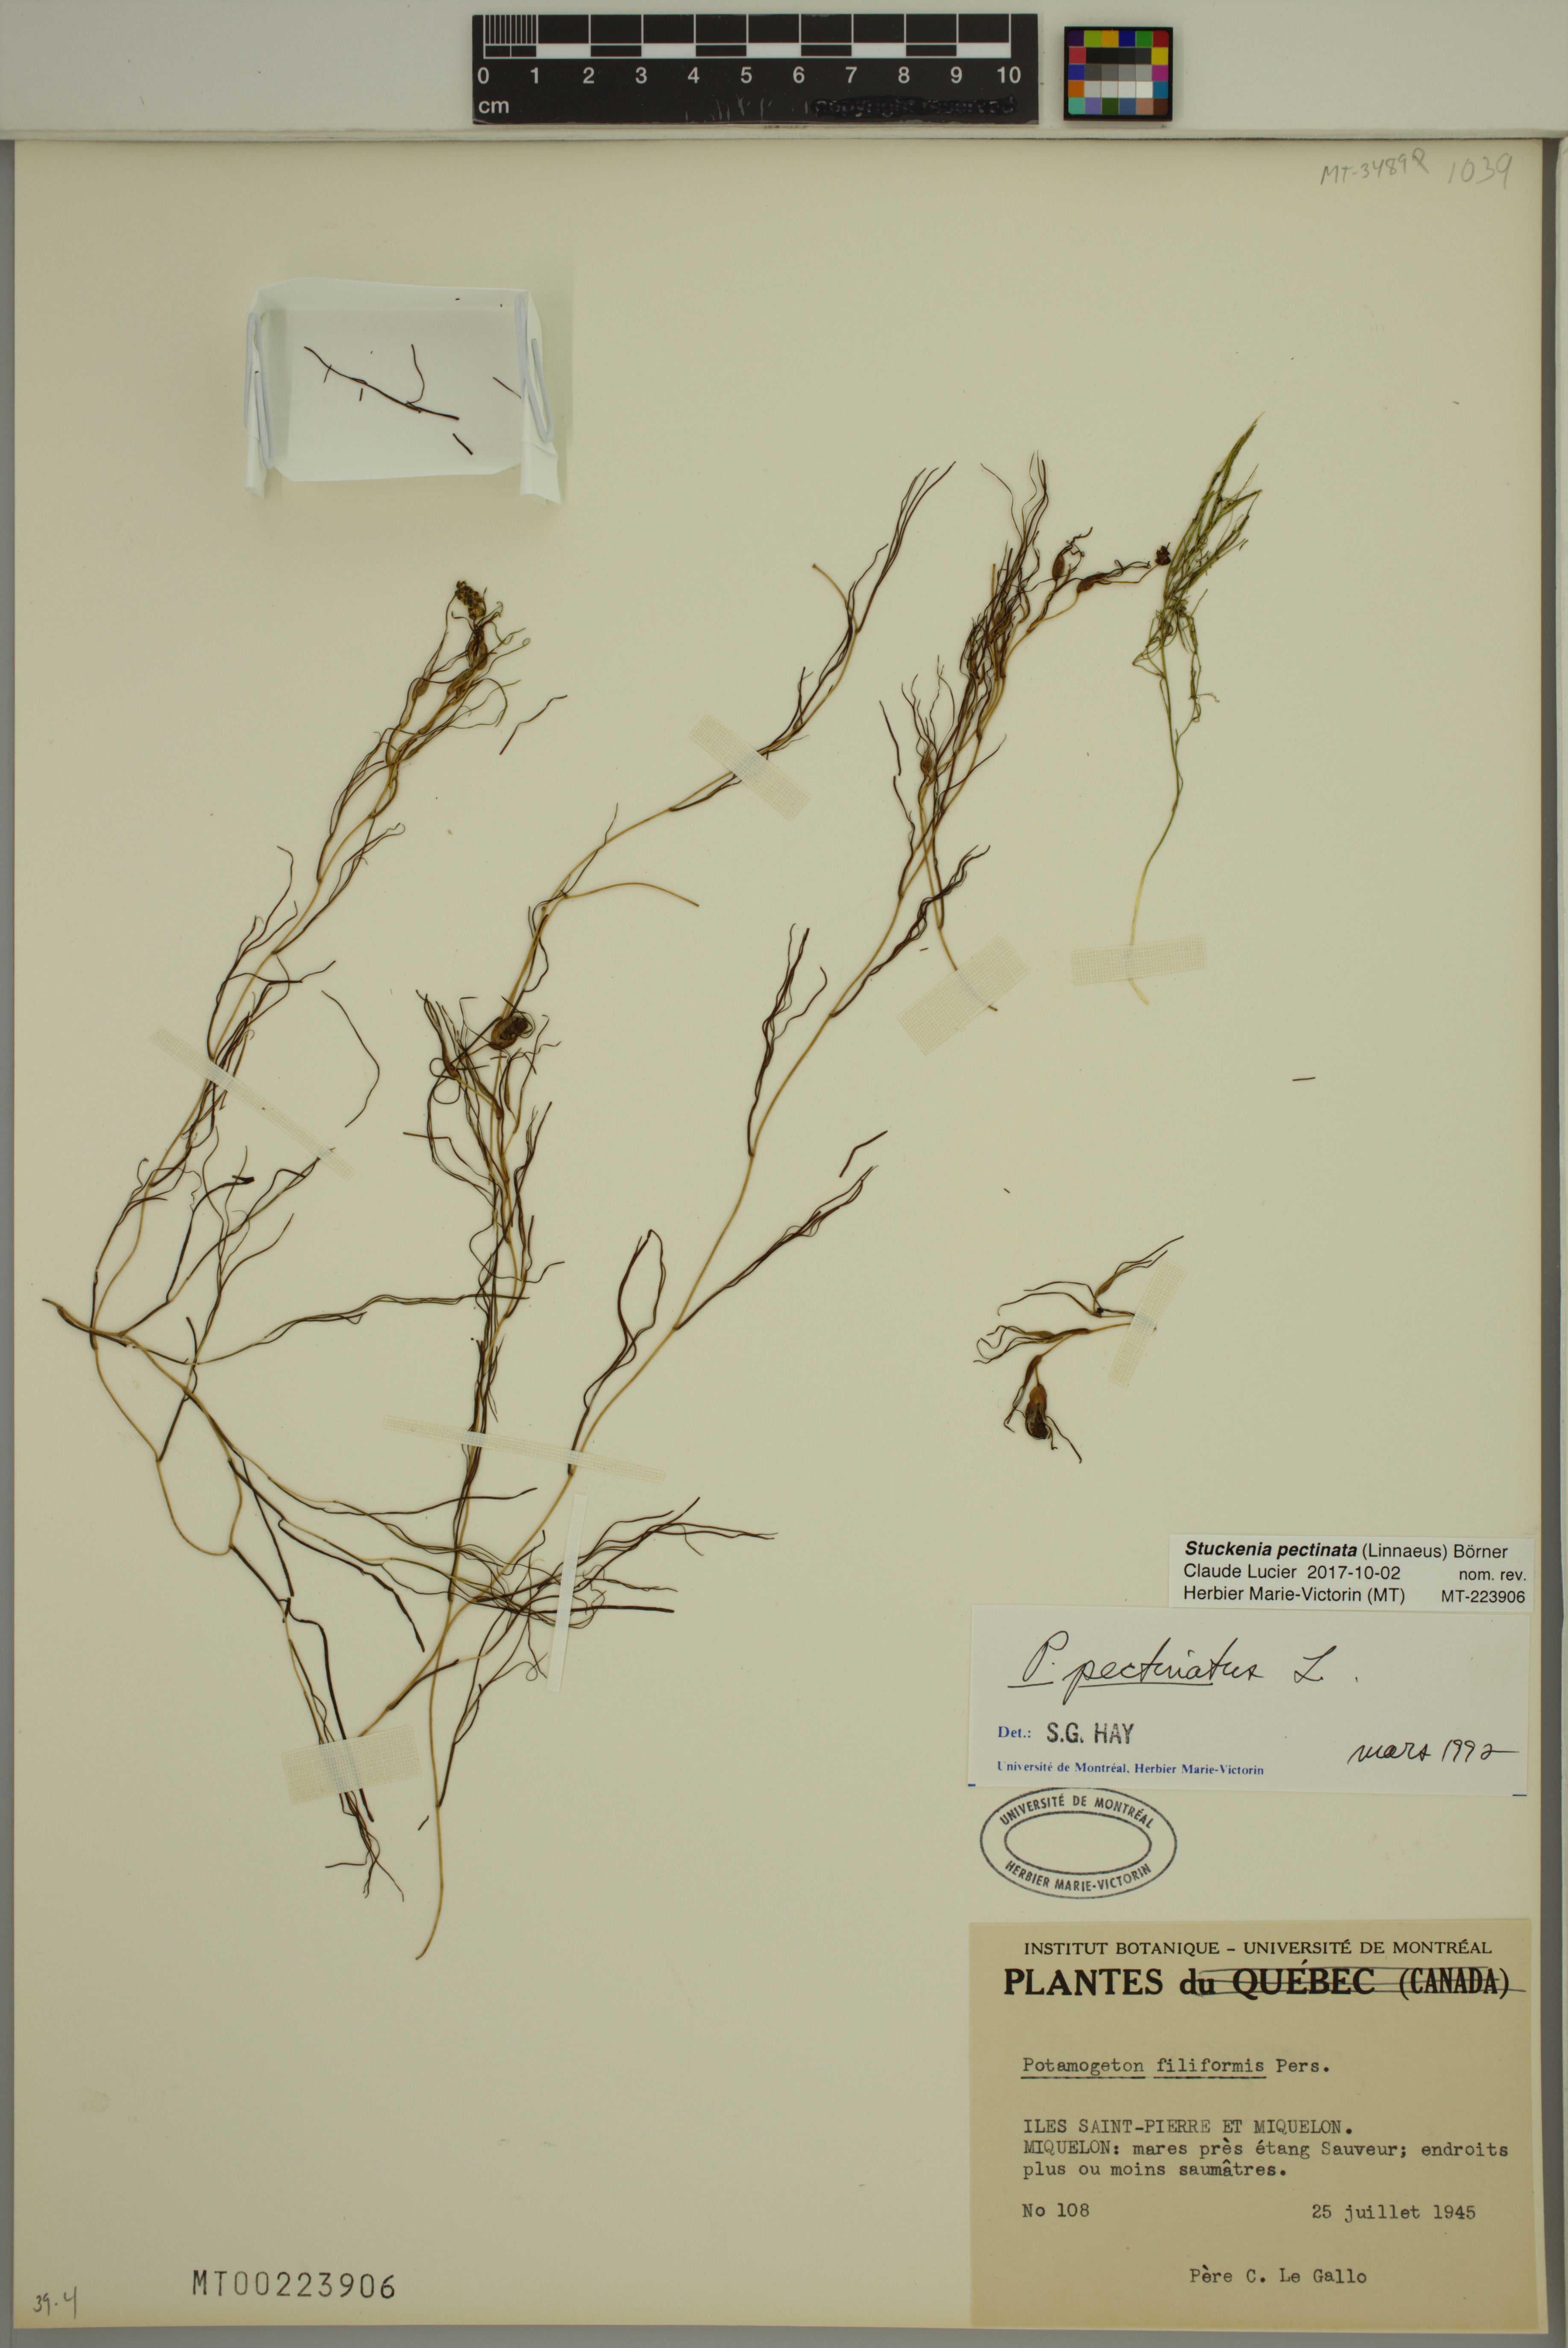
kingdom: Plantae
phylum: Tracheophyta
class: Liliopsida
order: Alismatales
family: Potamogetonaceae
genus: Stuckenia
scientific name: Stuckenia pectinata
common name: Sago pondweed
